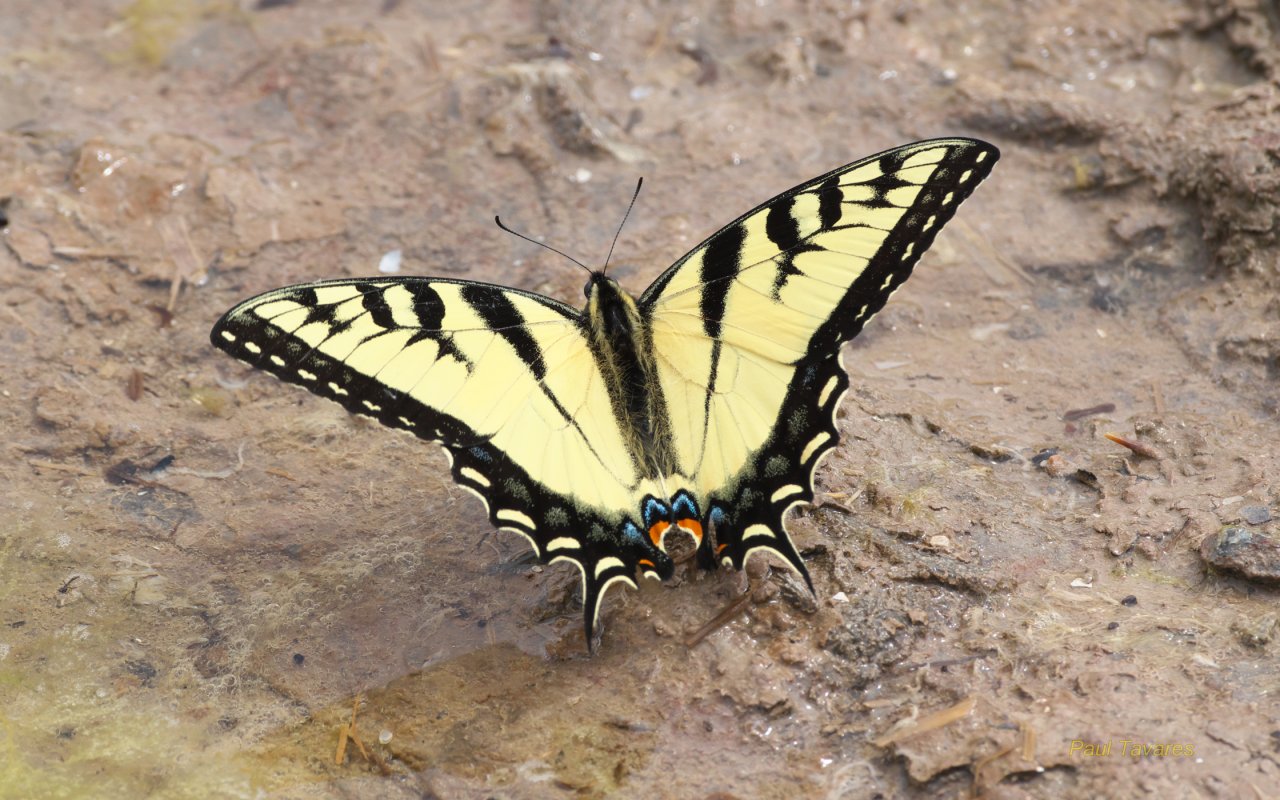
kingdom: Animalia
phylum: Arthropoda
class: Insecta
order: Lepidoptera
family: Papilionidae
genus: Pterourus
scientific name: Pterourus glaucus
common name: Eastern Tiger Swallowtail
